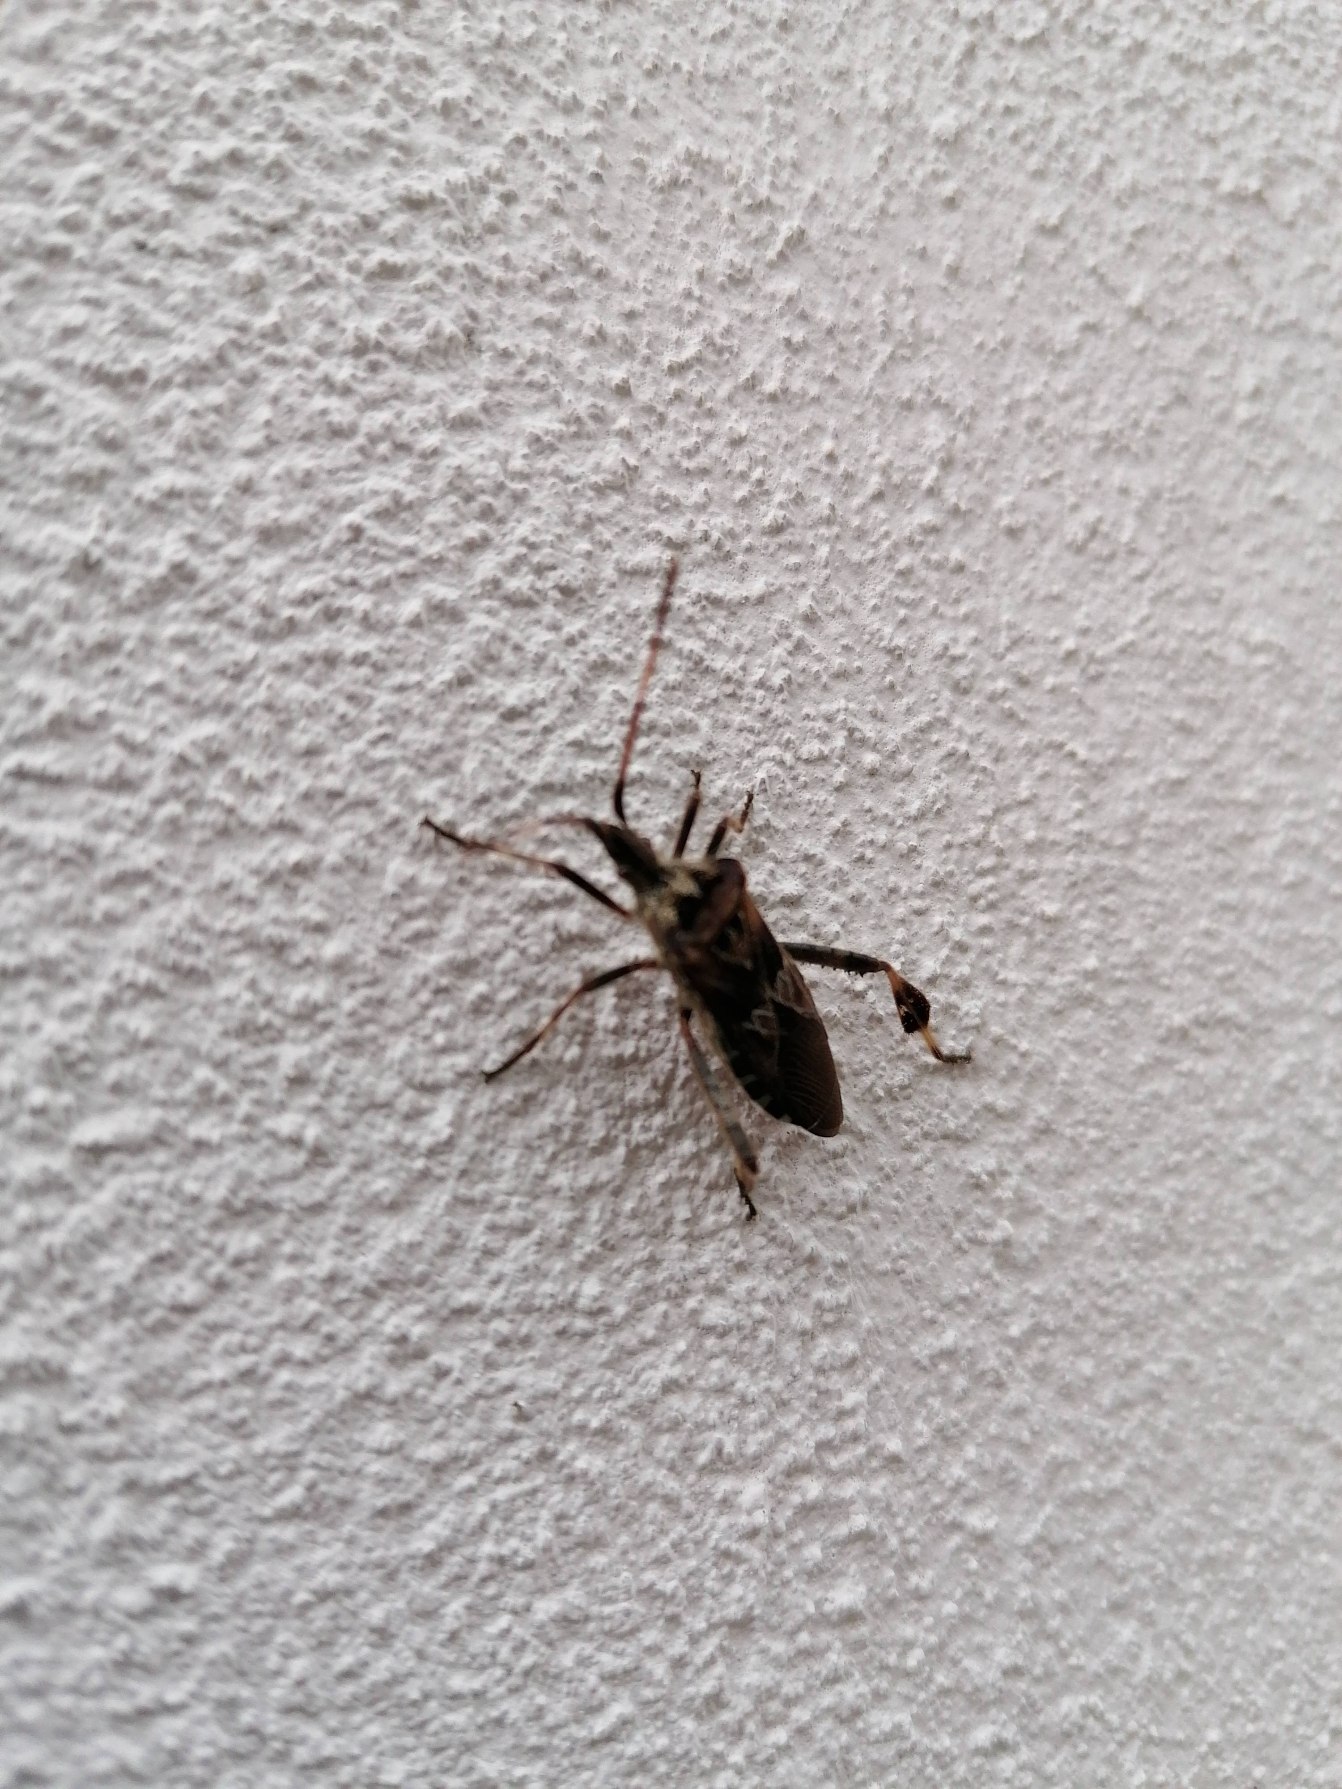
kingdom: Animalia
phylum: Arthropoda
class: Insecta
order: Hemiptera
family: Coreidae
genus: Leptoglossus
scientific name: Leptoglossus occidentalis
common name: Amerikansk fyrretæge
